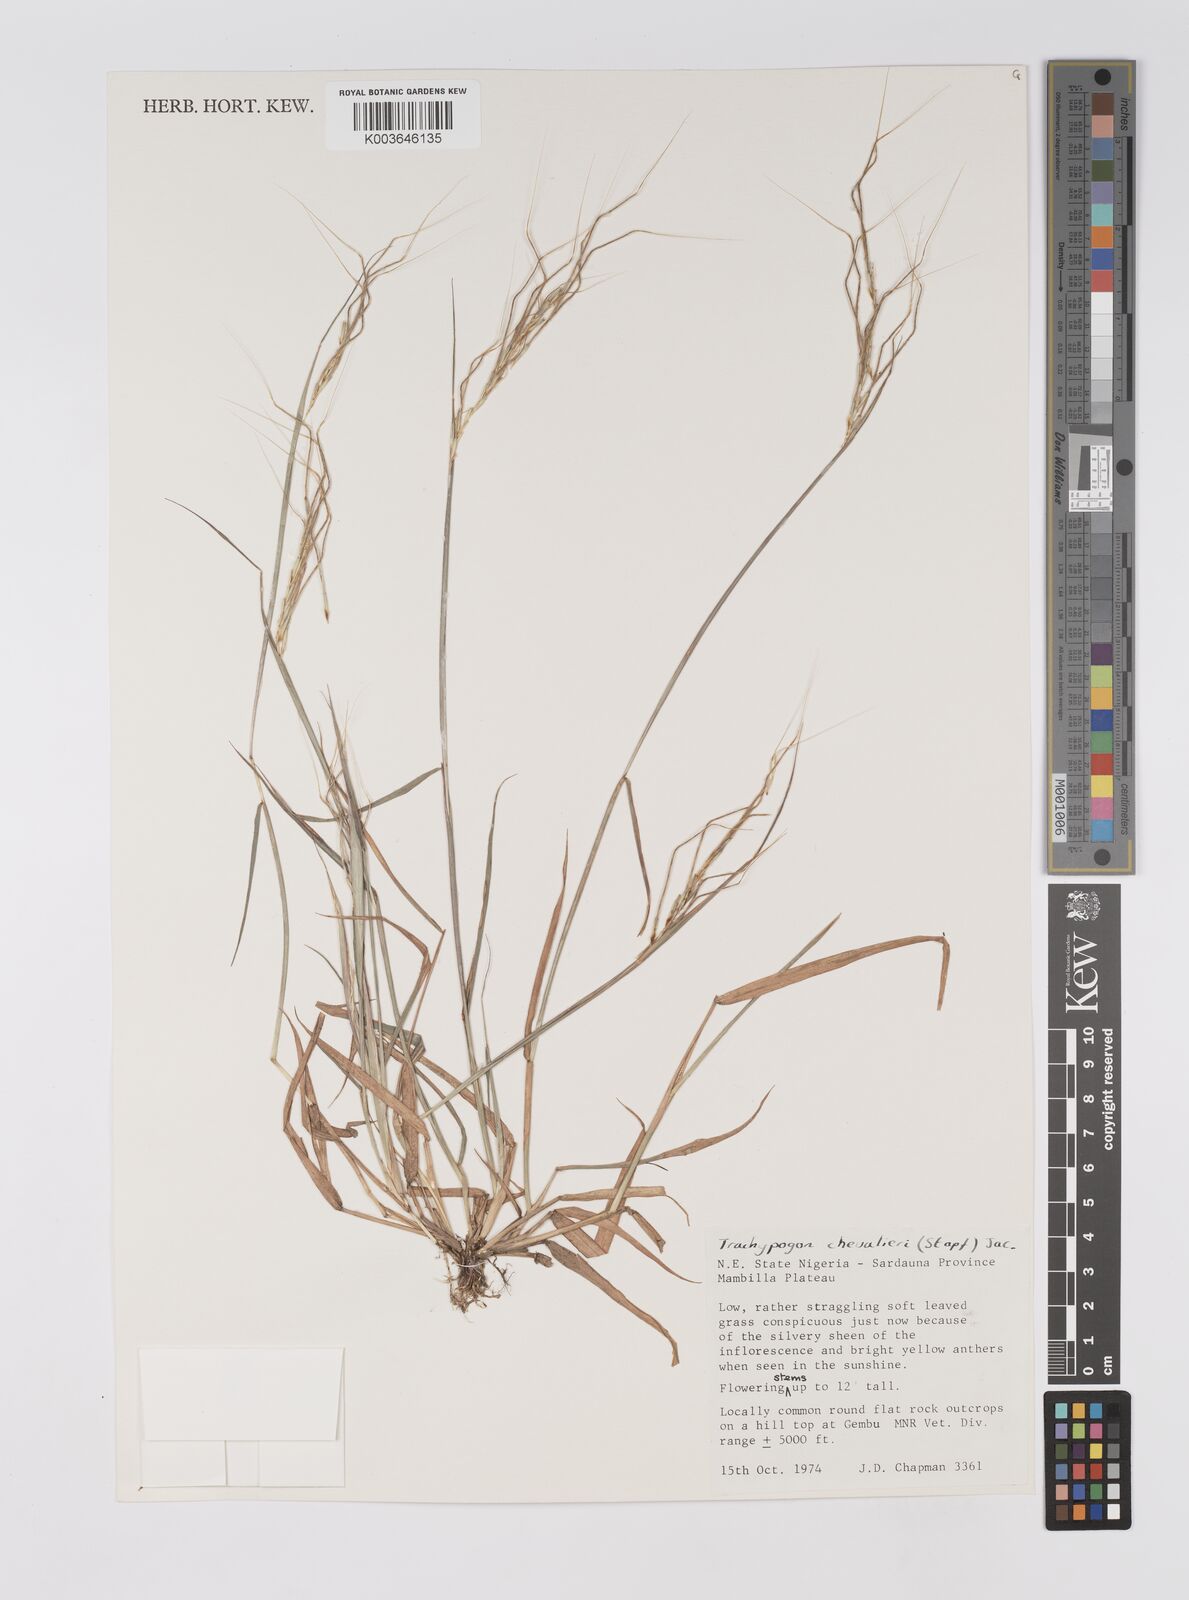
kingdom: Plantae
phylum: Tracheophyta
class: Liliopsida
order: Poales
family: Poaceae
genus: Trachypogon
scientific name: Trachypogon chevalieri
